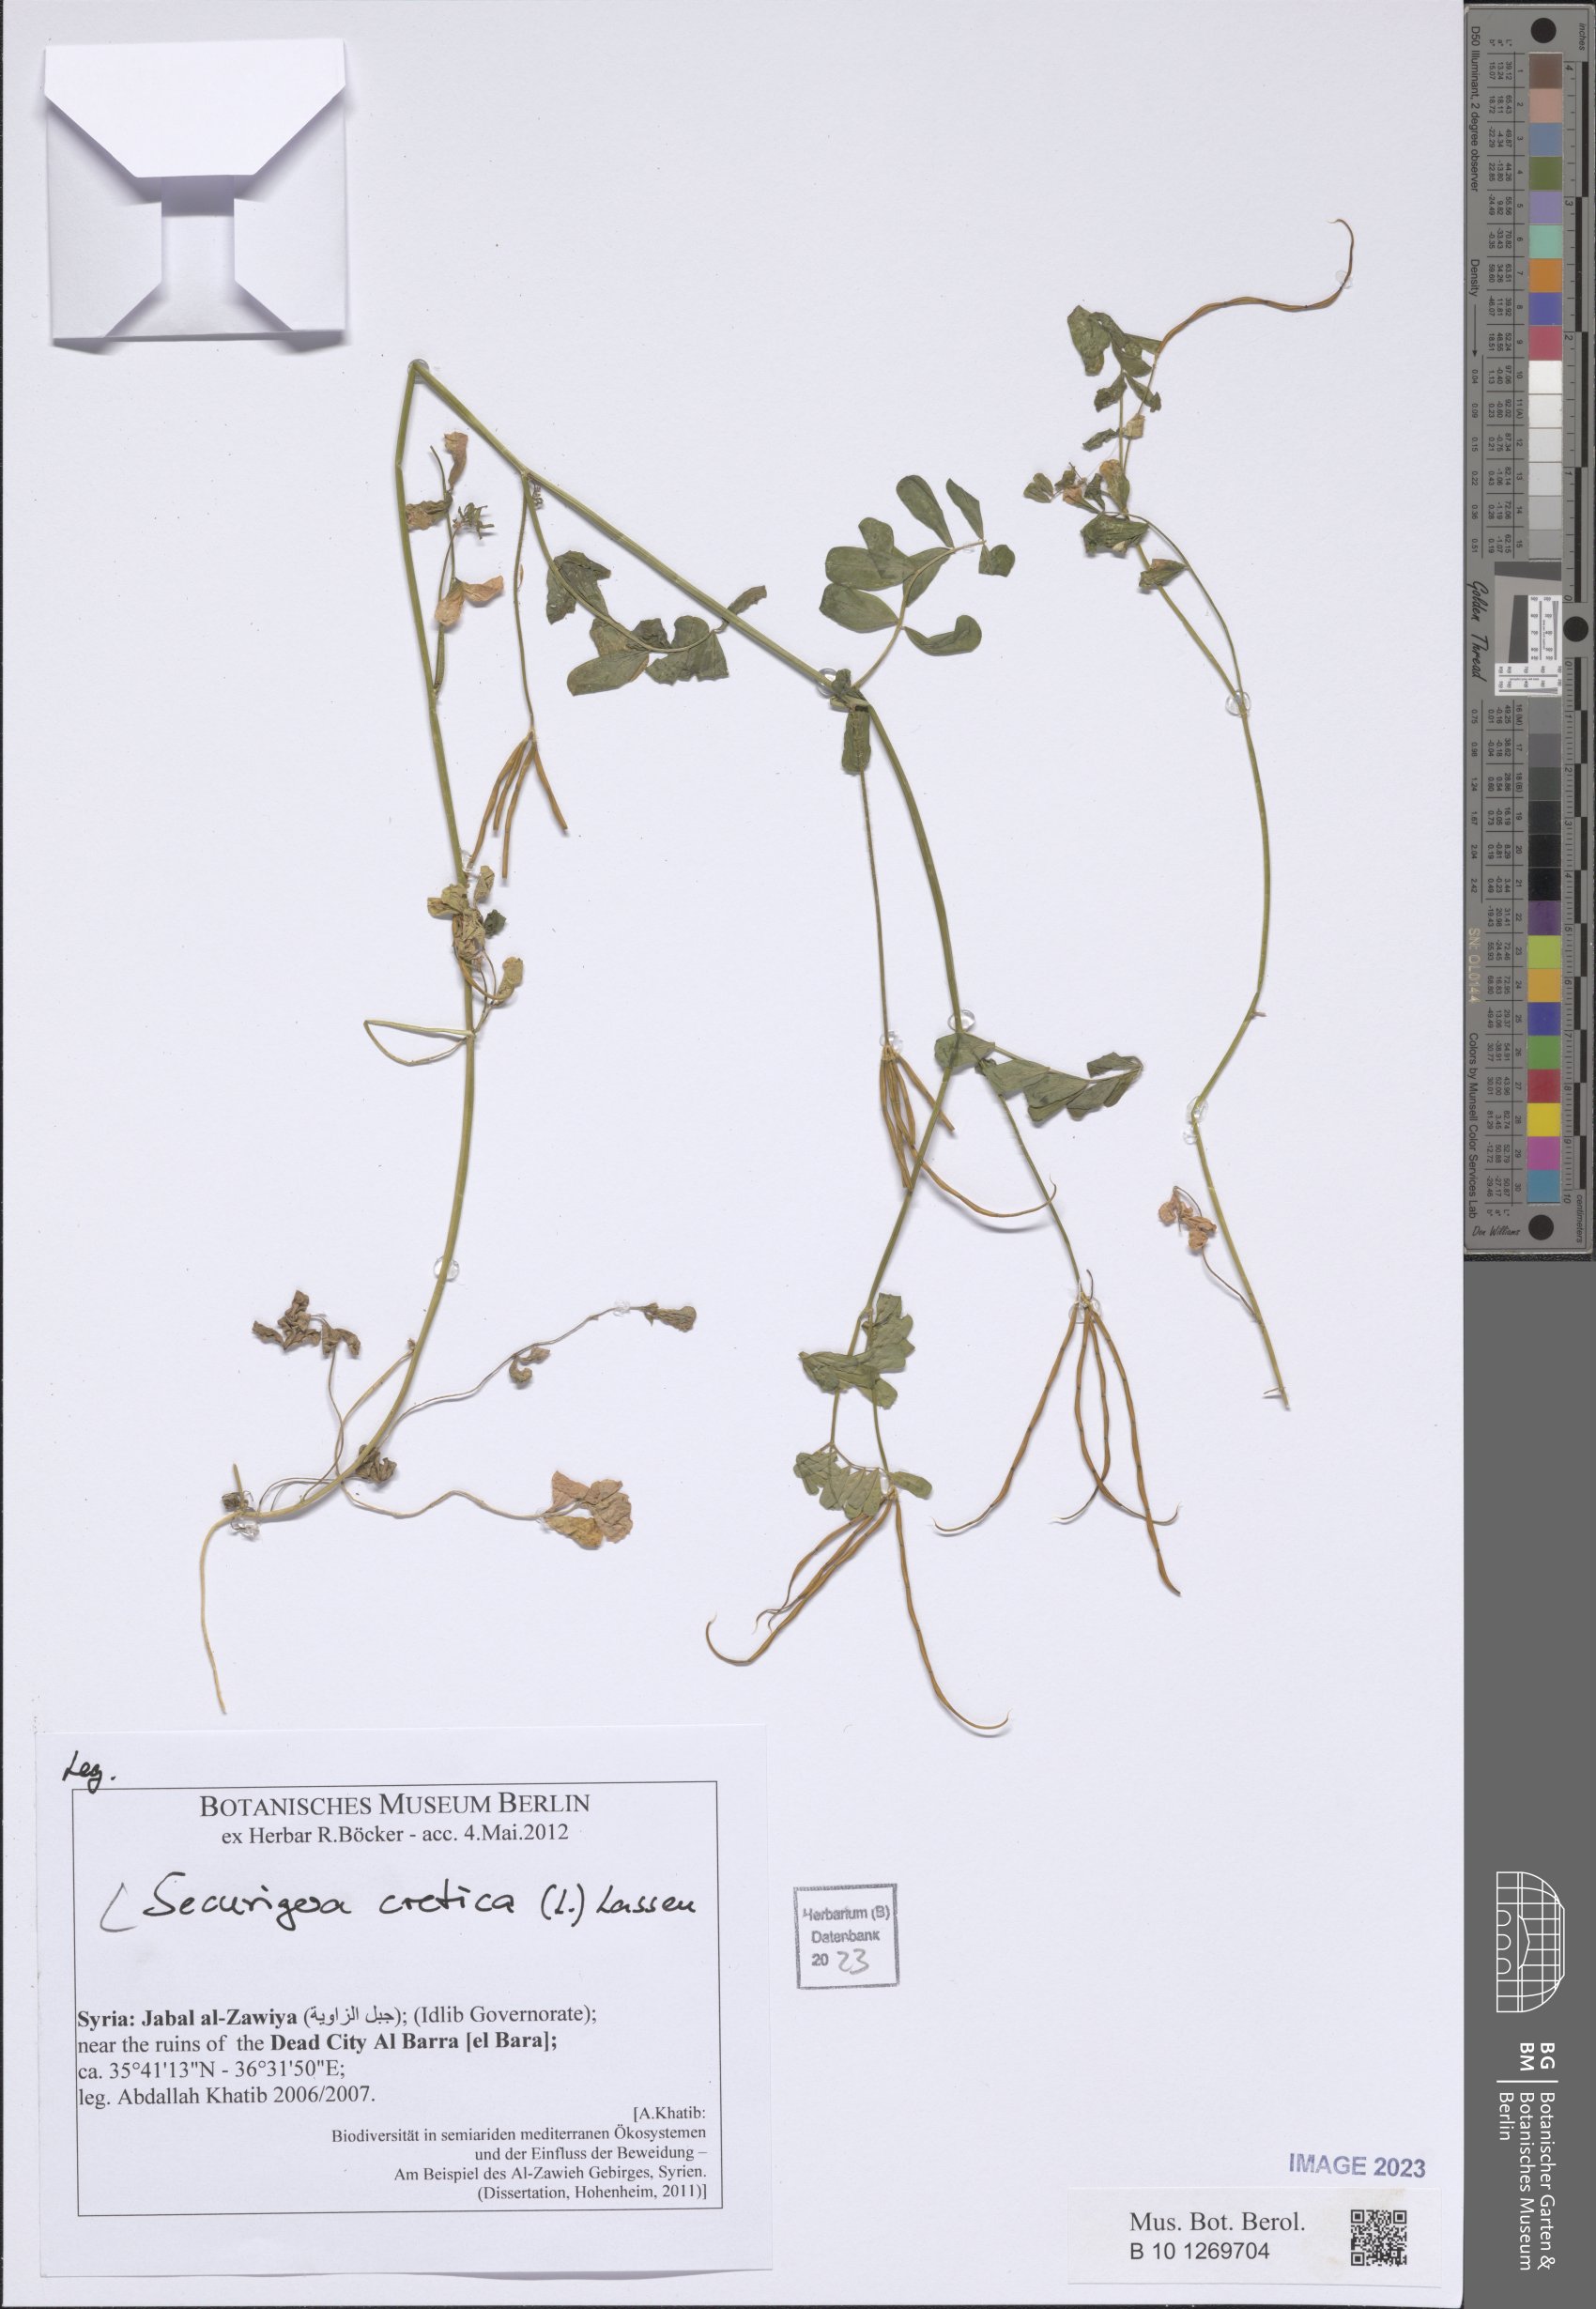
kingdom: Plantae
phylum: Tracheophyta
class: Magnoliopsida
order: Fabales
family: Fabaceae
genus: Coronilla
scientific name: Coronilla cretica
